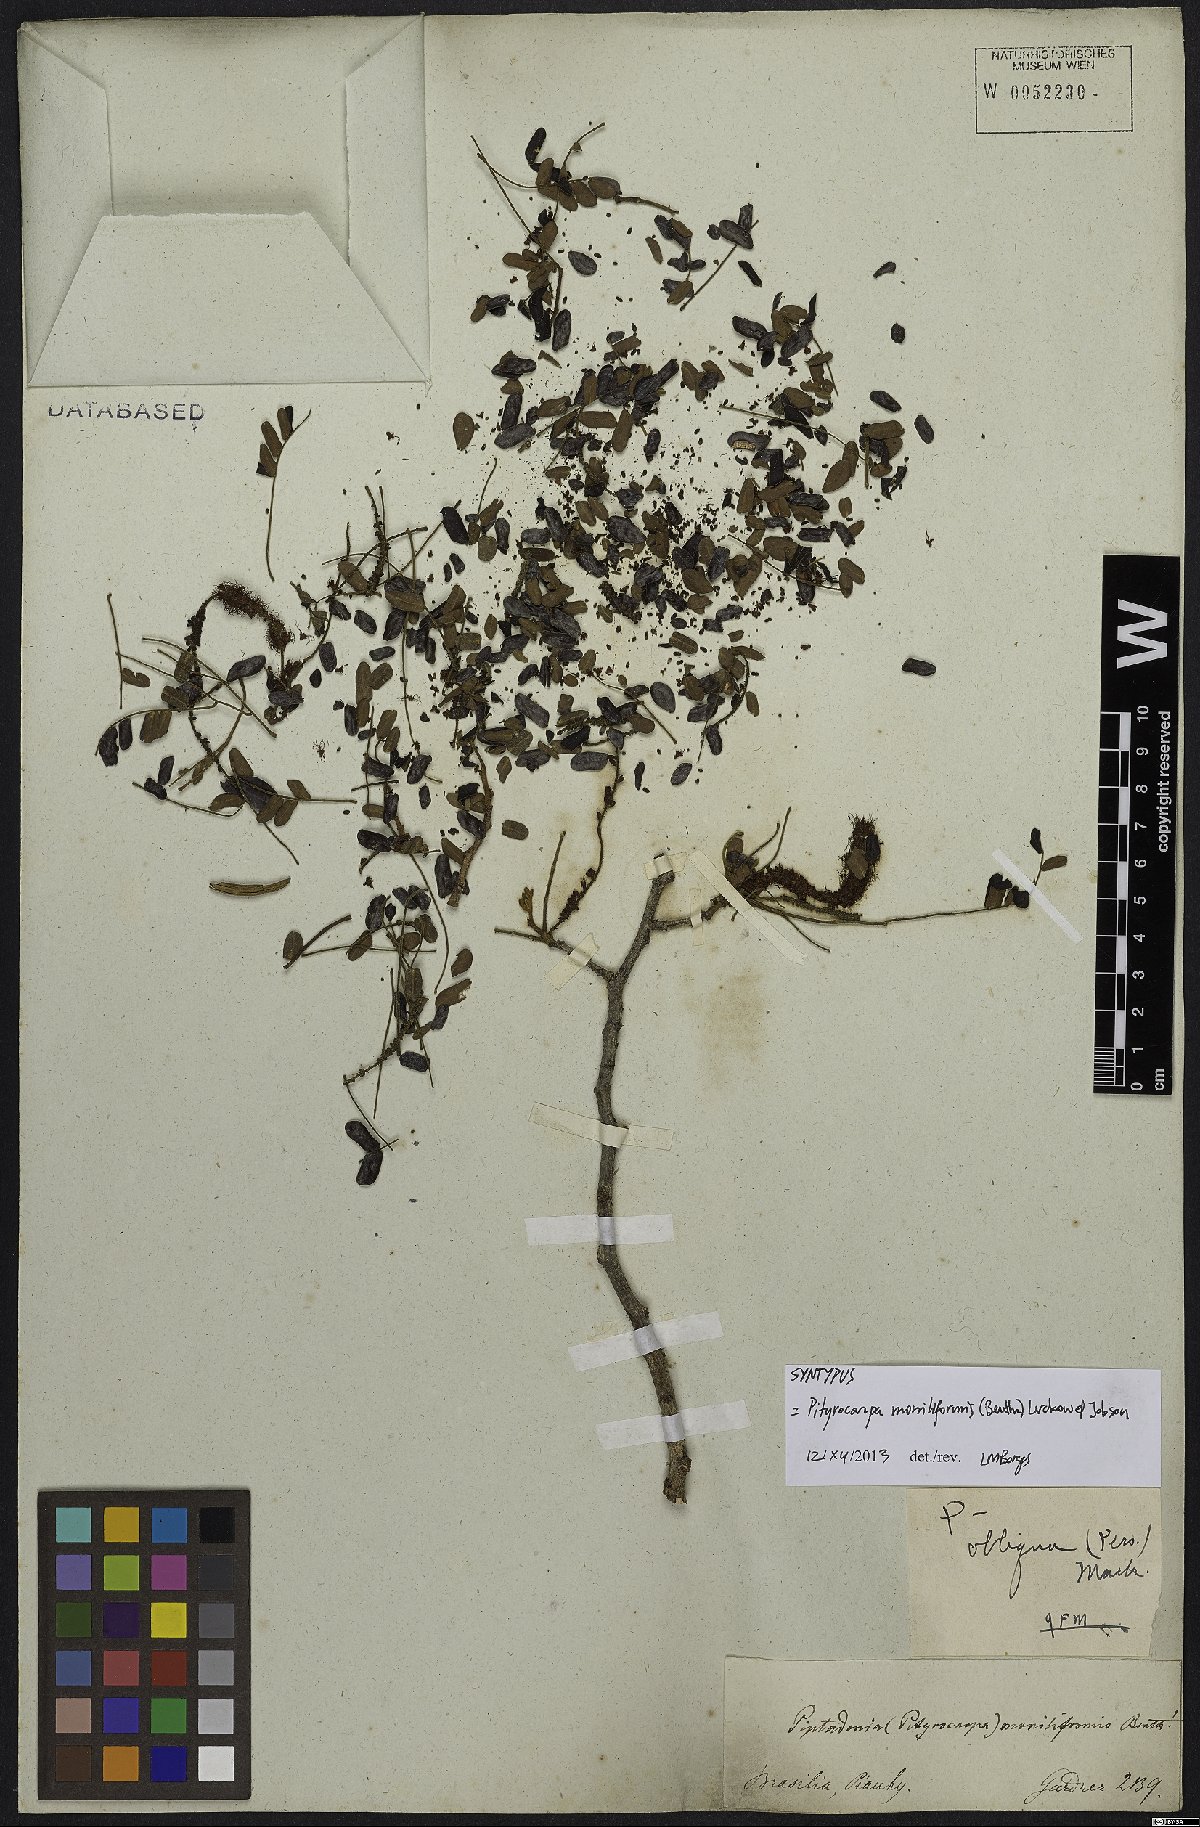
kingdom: Plantae
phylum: Tracheophyta
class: Magnoliopsida
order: Fabales
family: Fabaceae
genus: Pityrocarpa
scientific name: Pityrocarpa moniliformis
